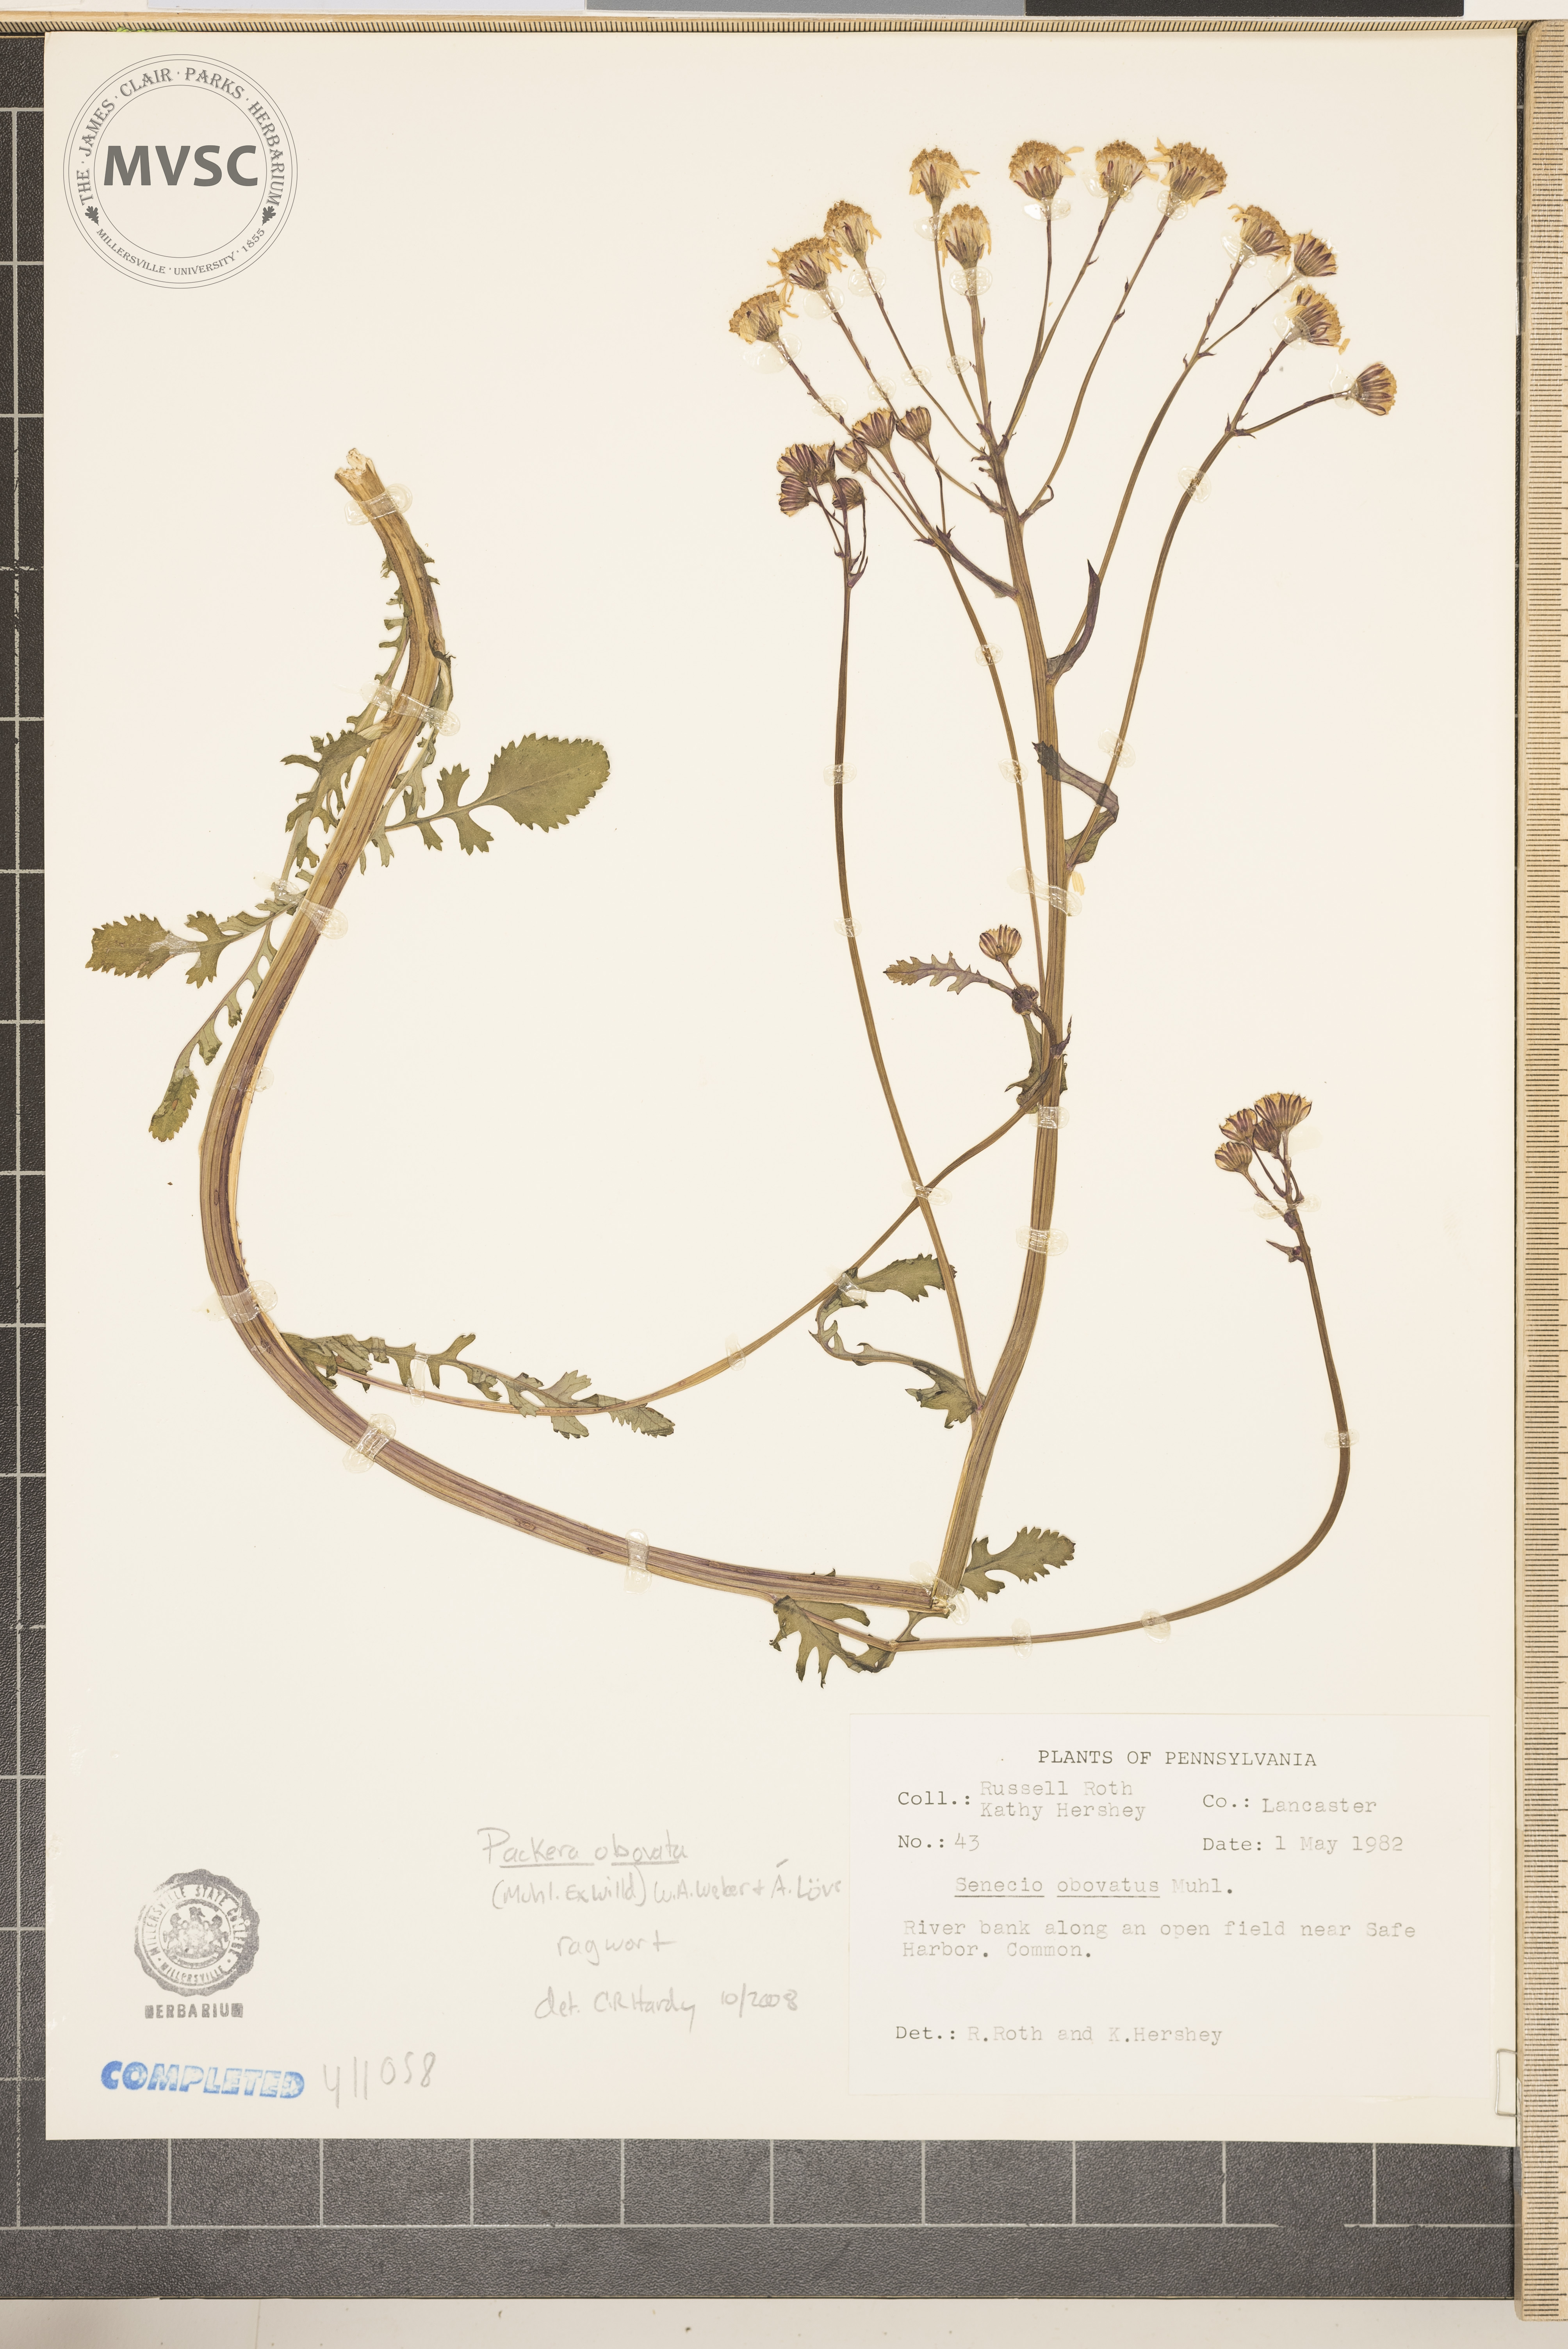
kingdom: Plantae
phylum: Tracheophyta
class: Magnoliopsida
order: Asterales
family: Asteraceae
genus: Packera
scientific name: Packera obovata
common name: ragwort
